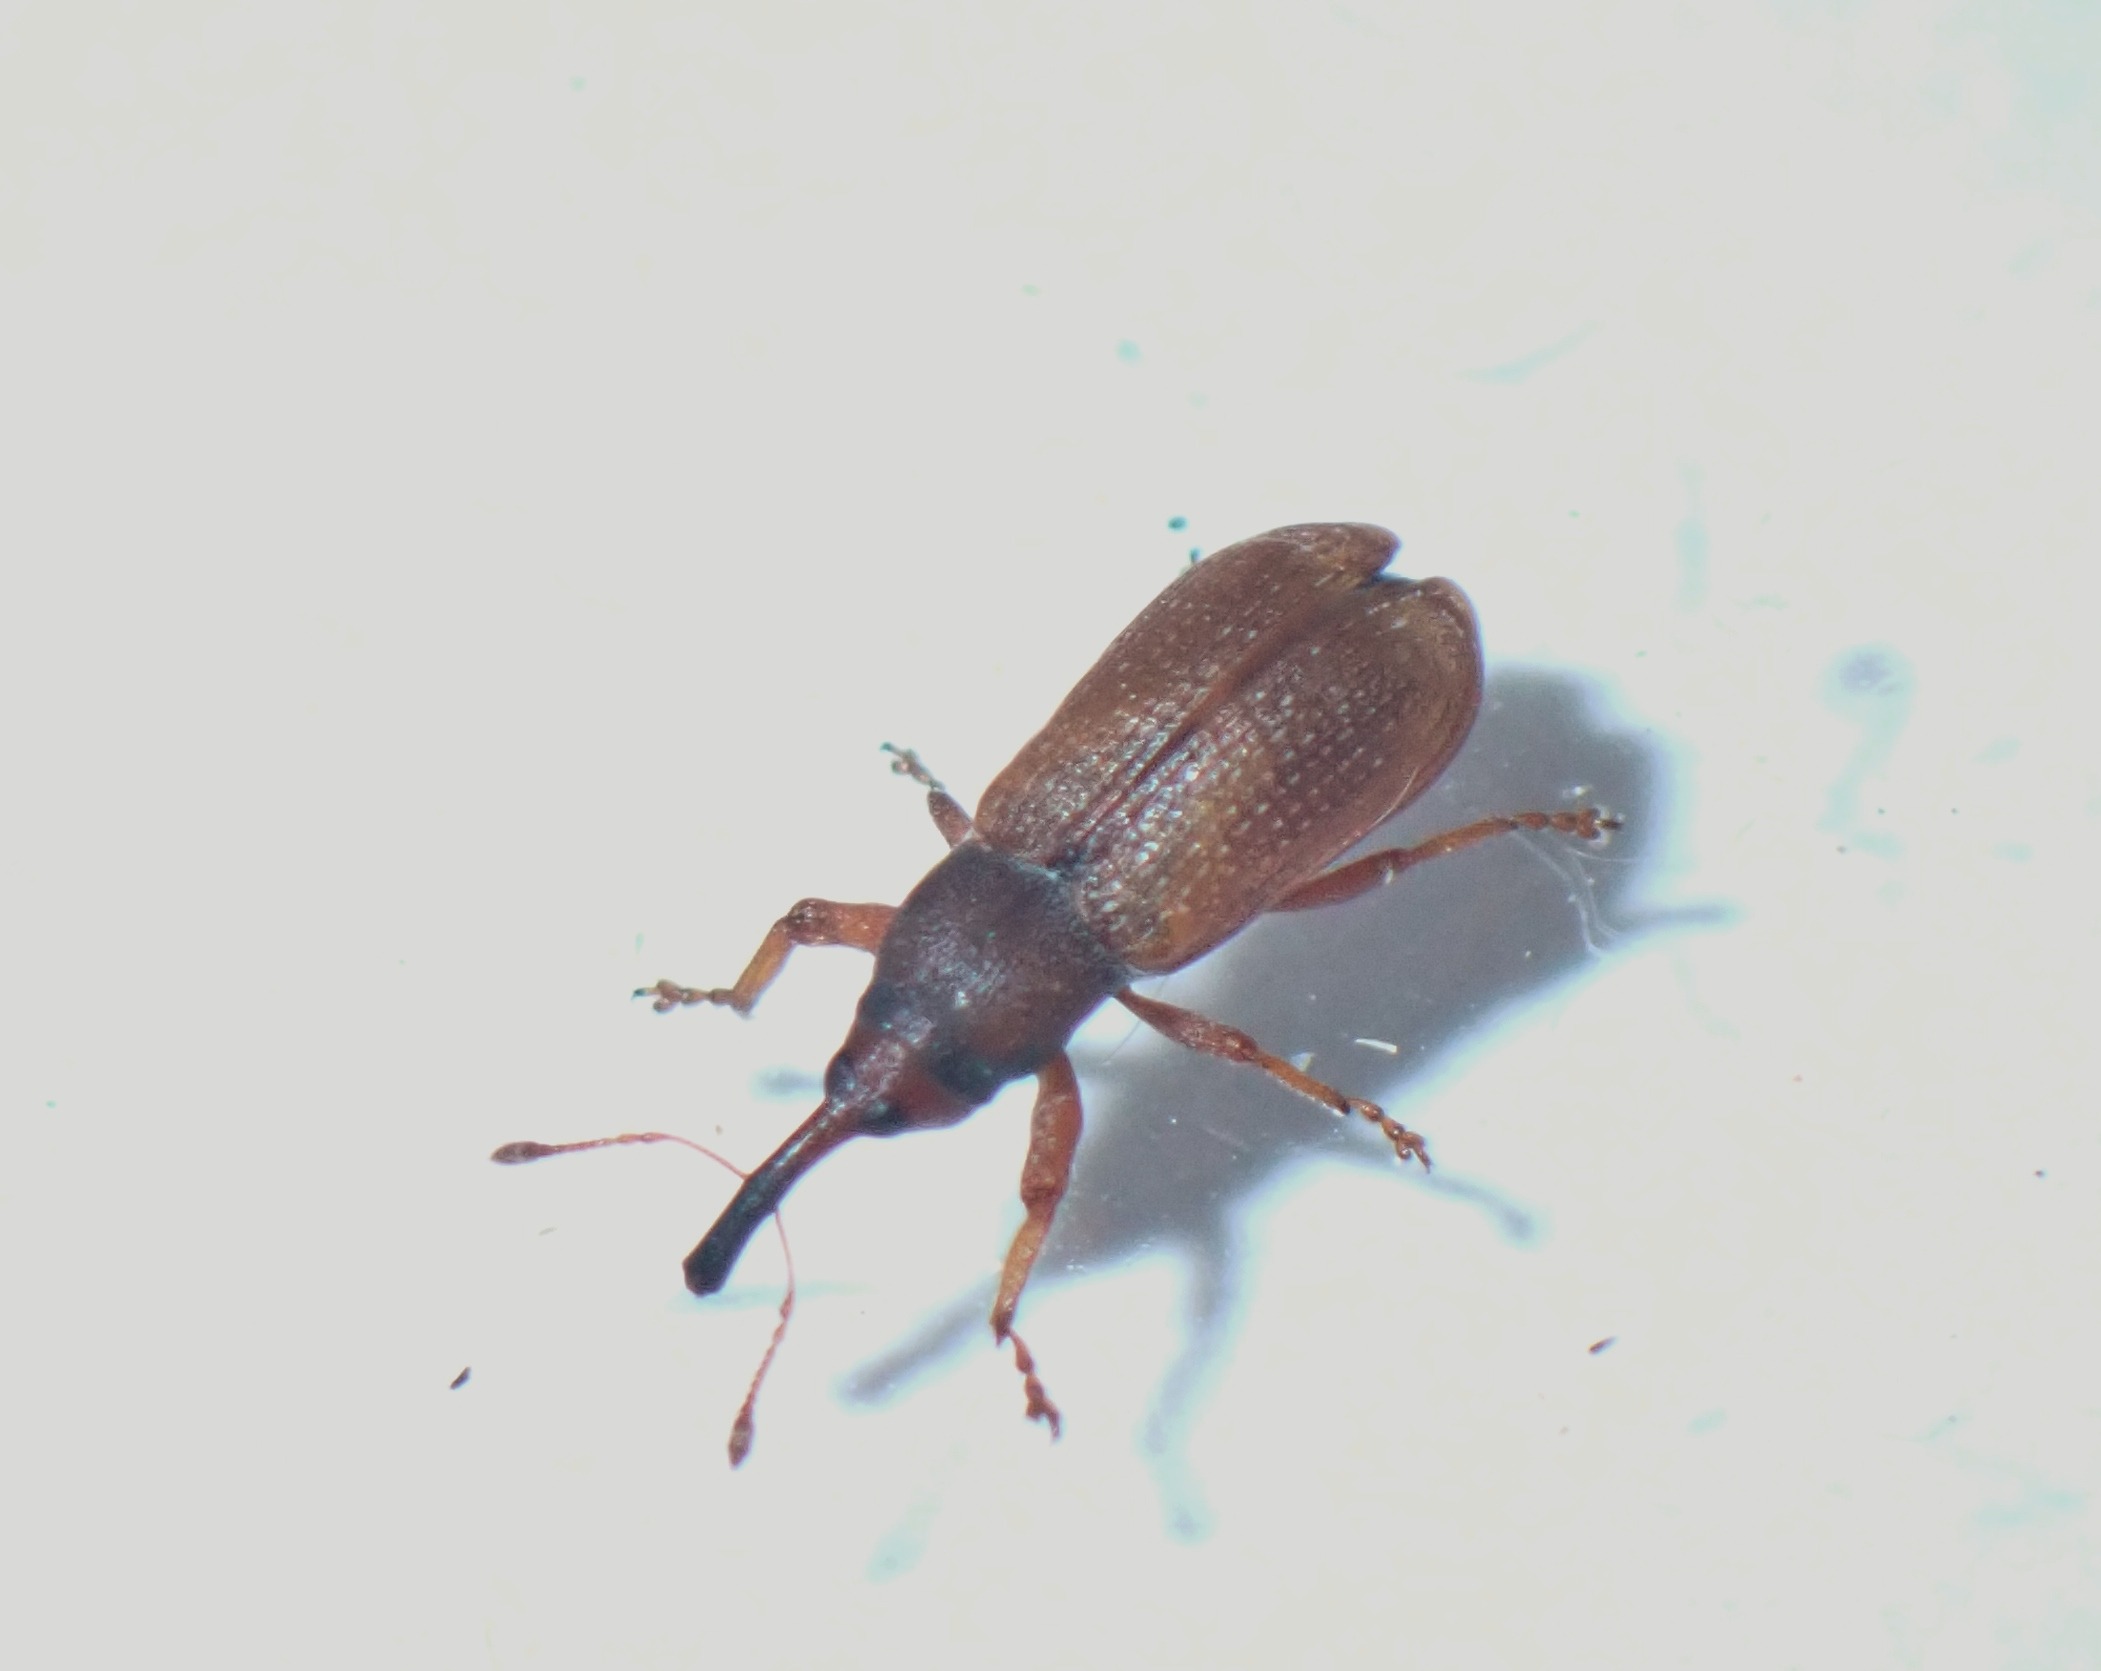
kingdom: Animalia
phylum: Arthropoda
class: Insecta
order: Coleoptera
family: Curculionidae
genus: Magdalis
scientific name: Magdalis rufa
